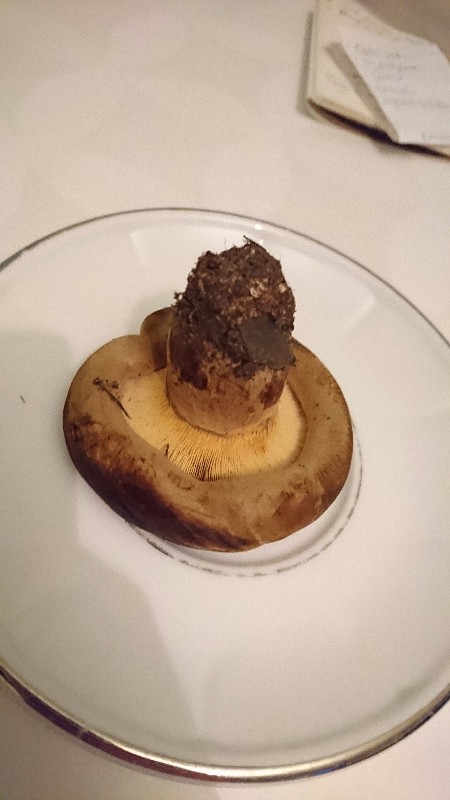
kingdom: Fungi
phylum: Basidiomycota
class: Agaricomycetes
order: Boletales
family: Paxillaceae
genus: Paxillus
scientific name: Paxillus obscurisporus
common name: mahognisporet netbladhat
